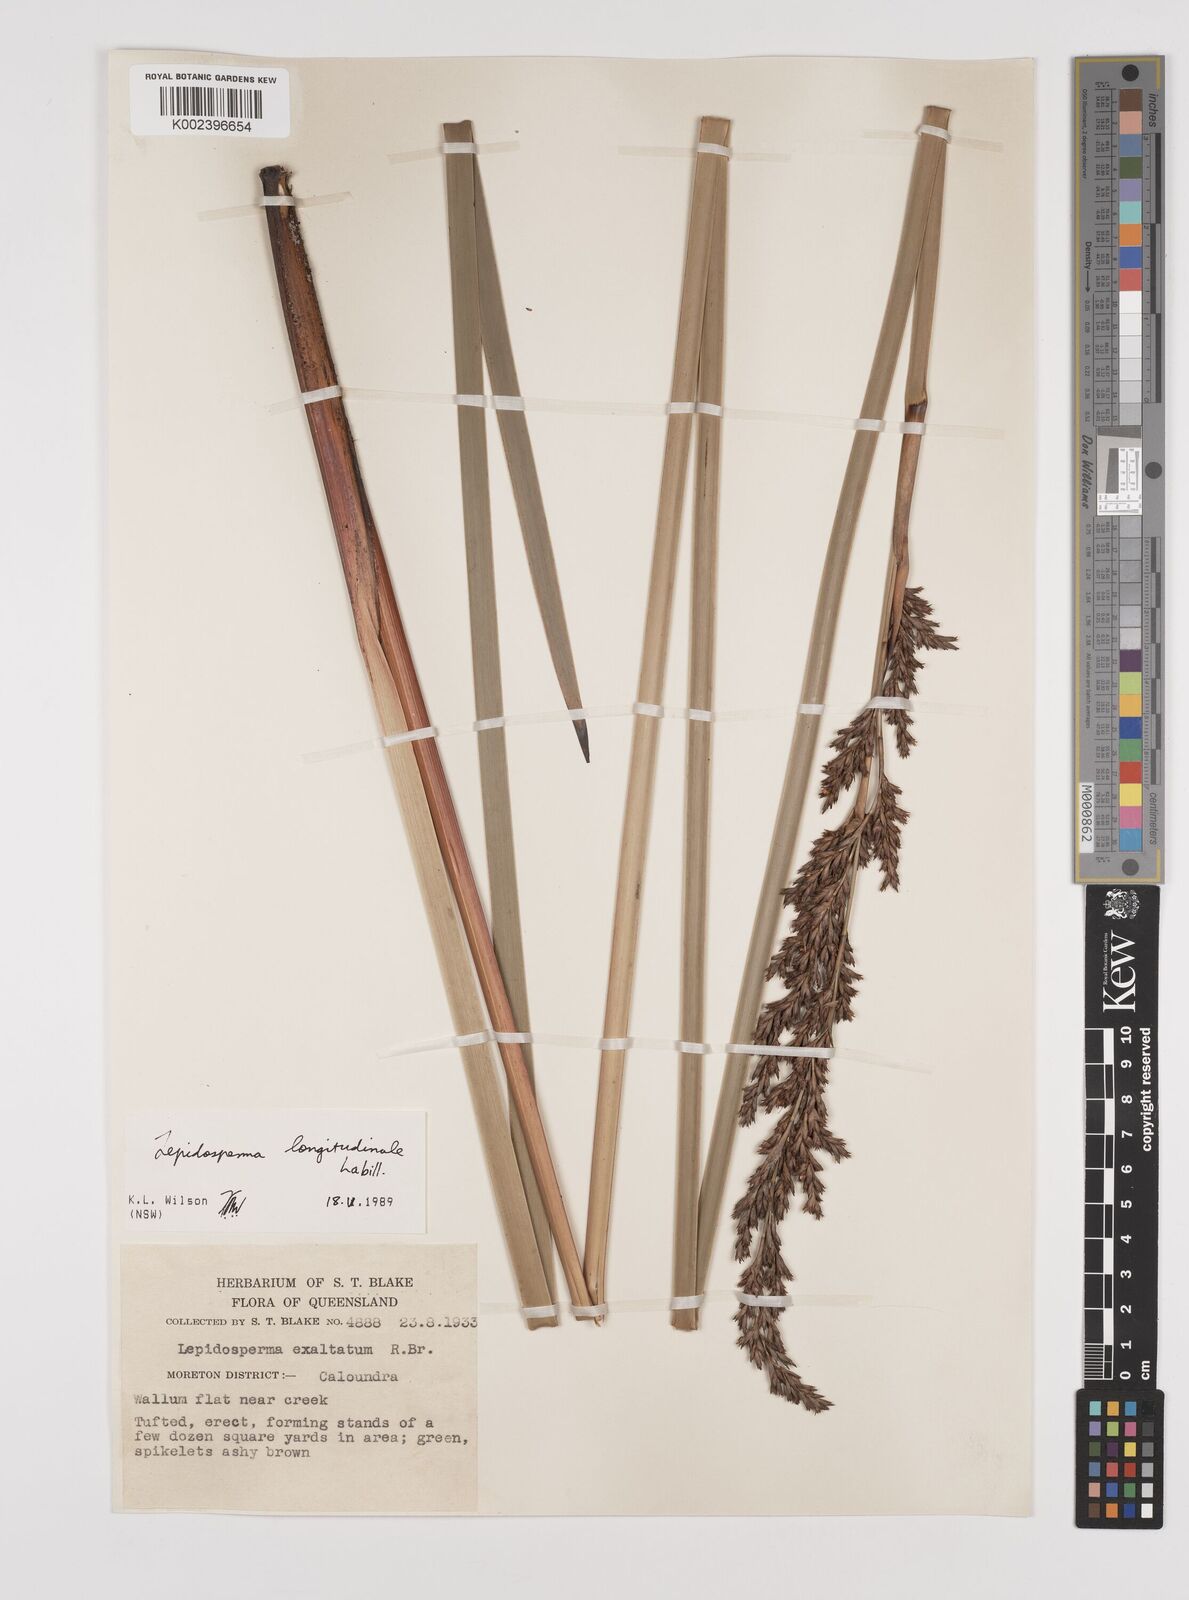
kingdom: Plantae
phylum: Tracheophyta
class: Liliopsida
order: Poales
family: Cyperaceae
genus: Lepidosperma
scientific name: Lepidosperma longitudinale
